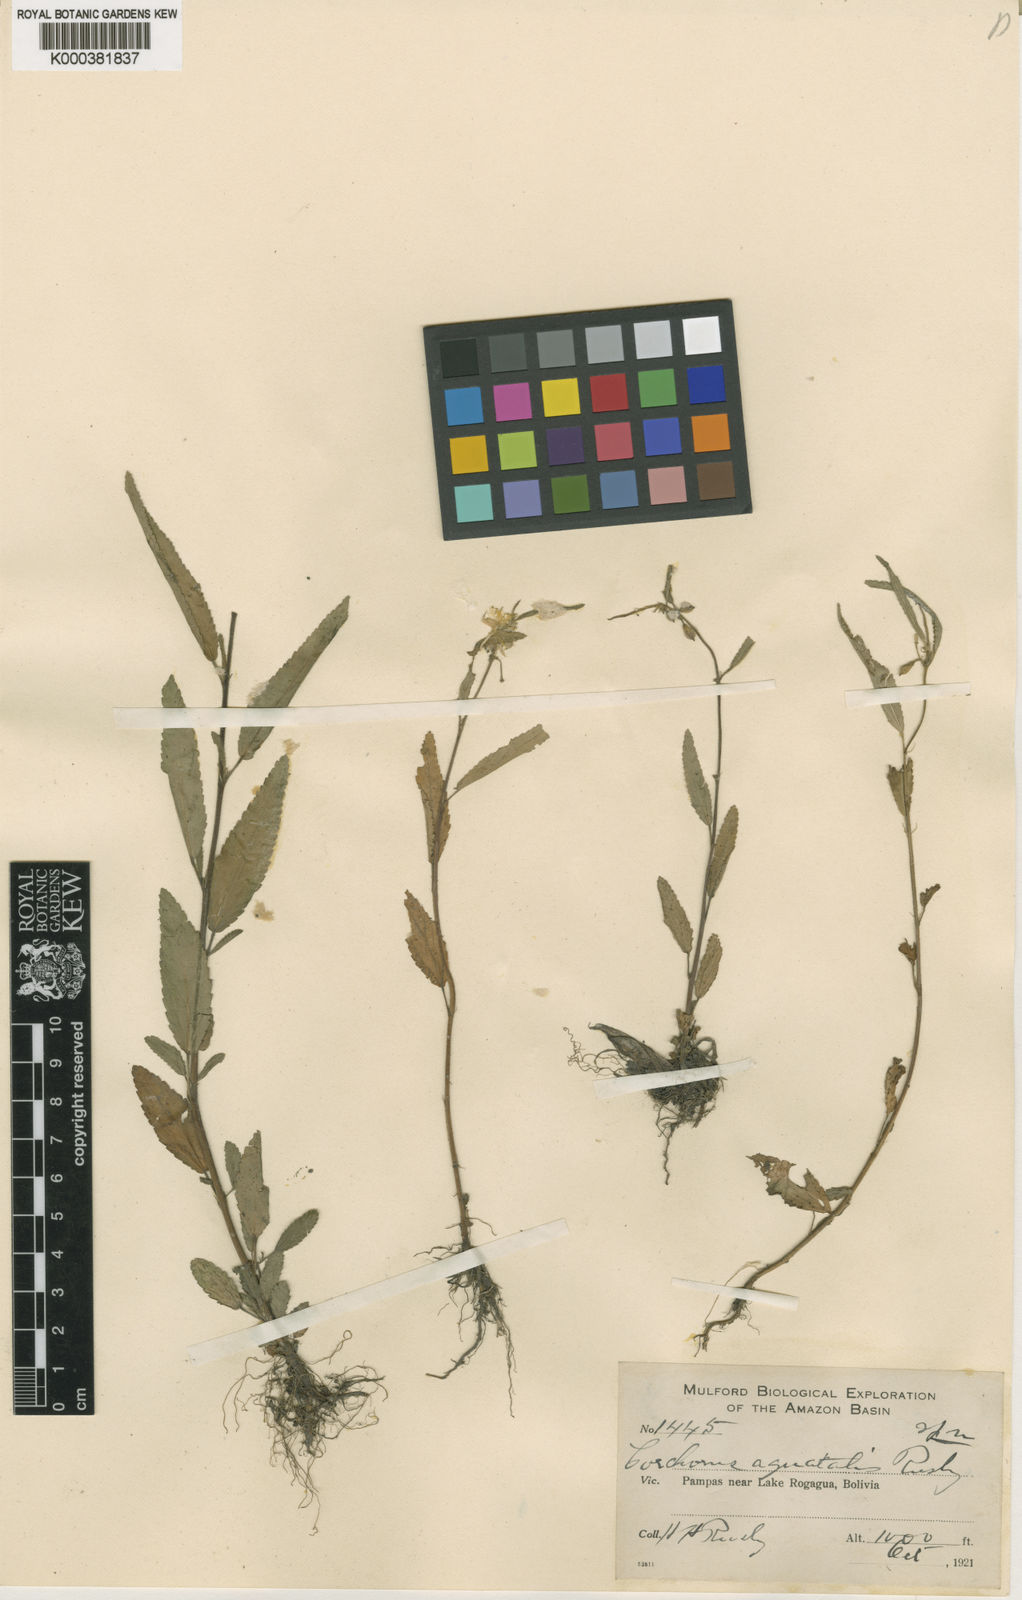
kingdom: Plantae
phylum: Tracheophyta
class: Magnoliopsida
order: Malvales
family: Malvaceae
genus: Corchorus
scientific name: Corchorus aquaticus
